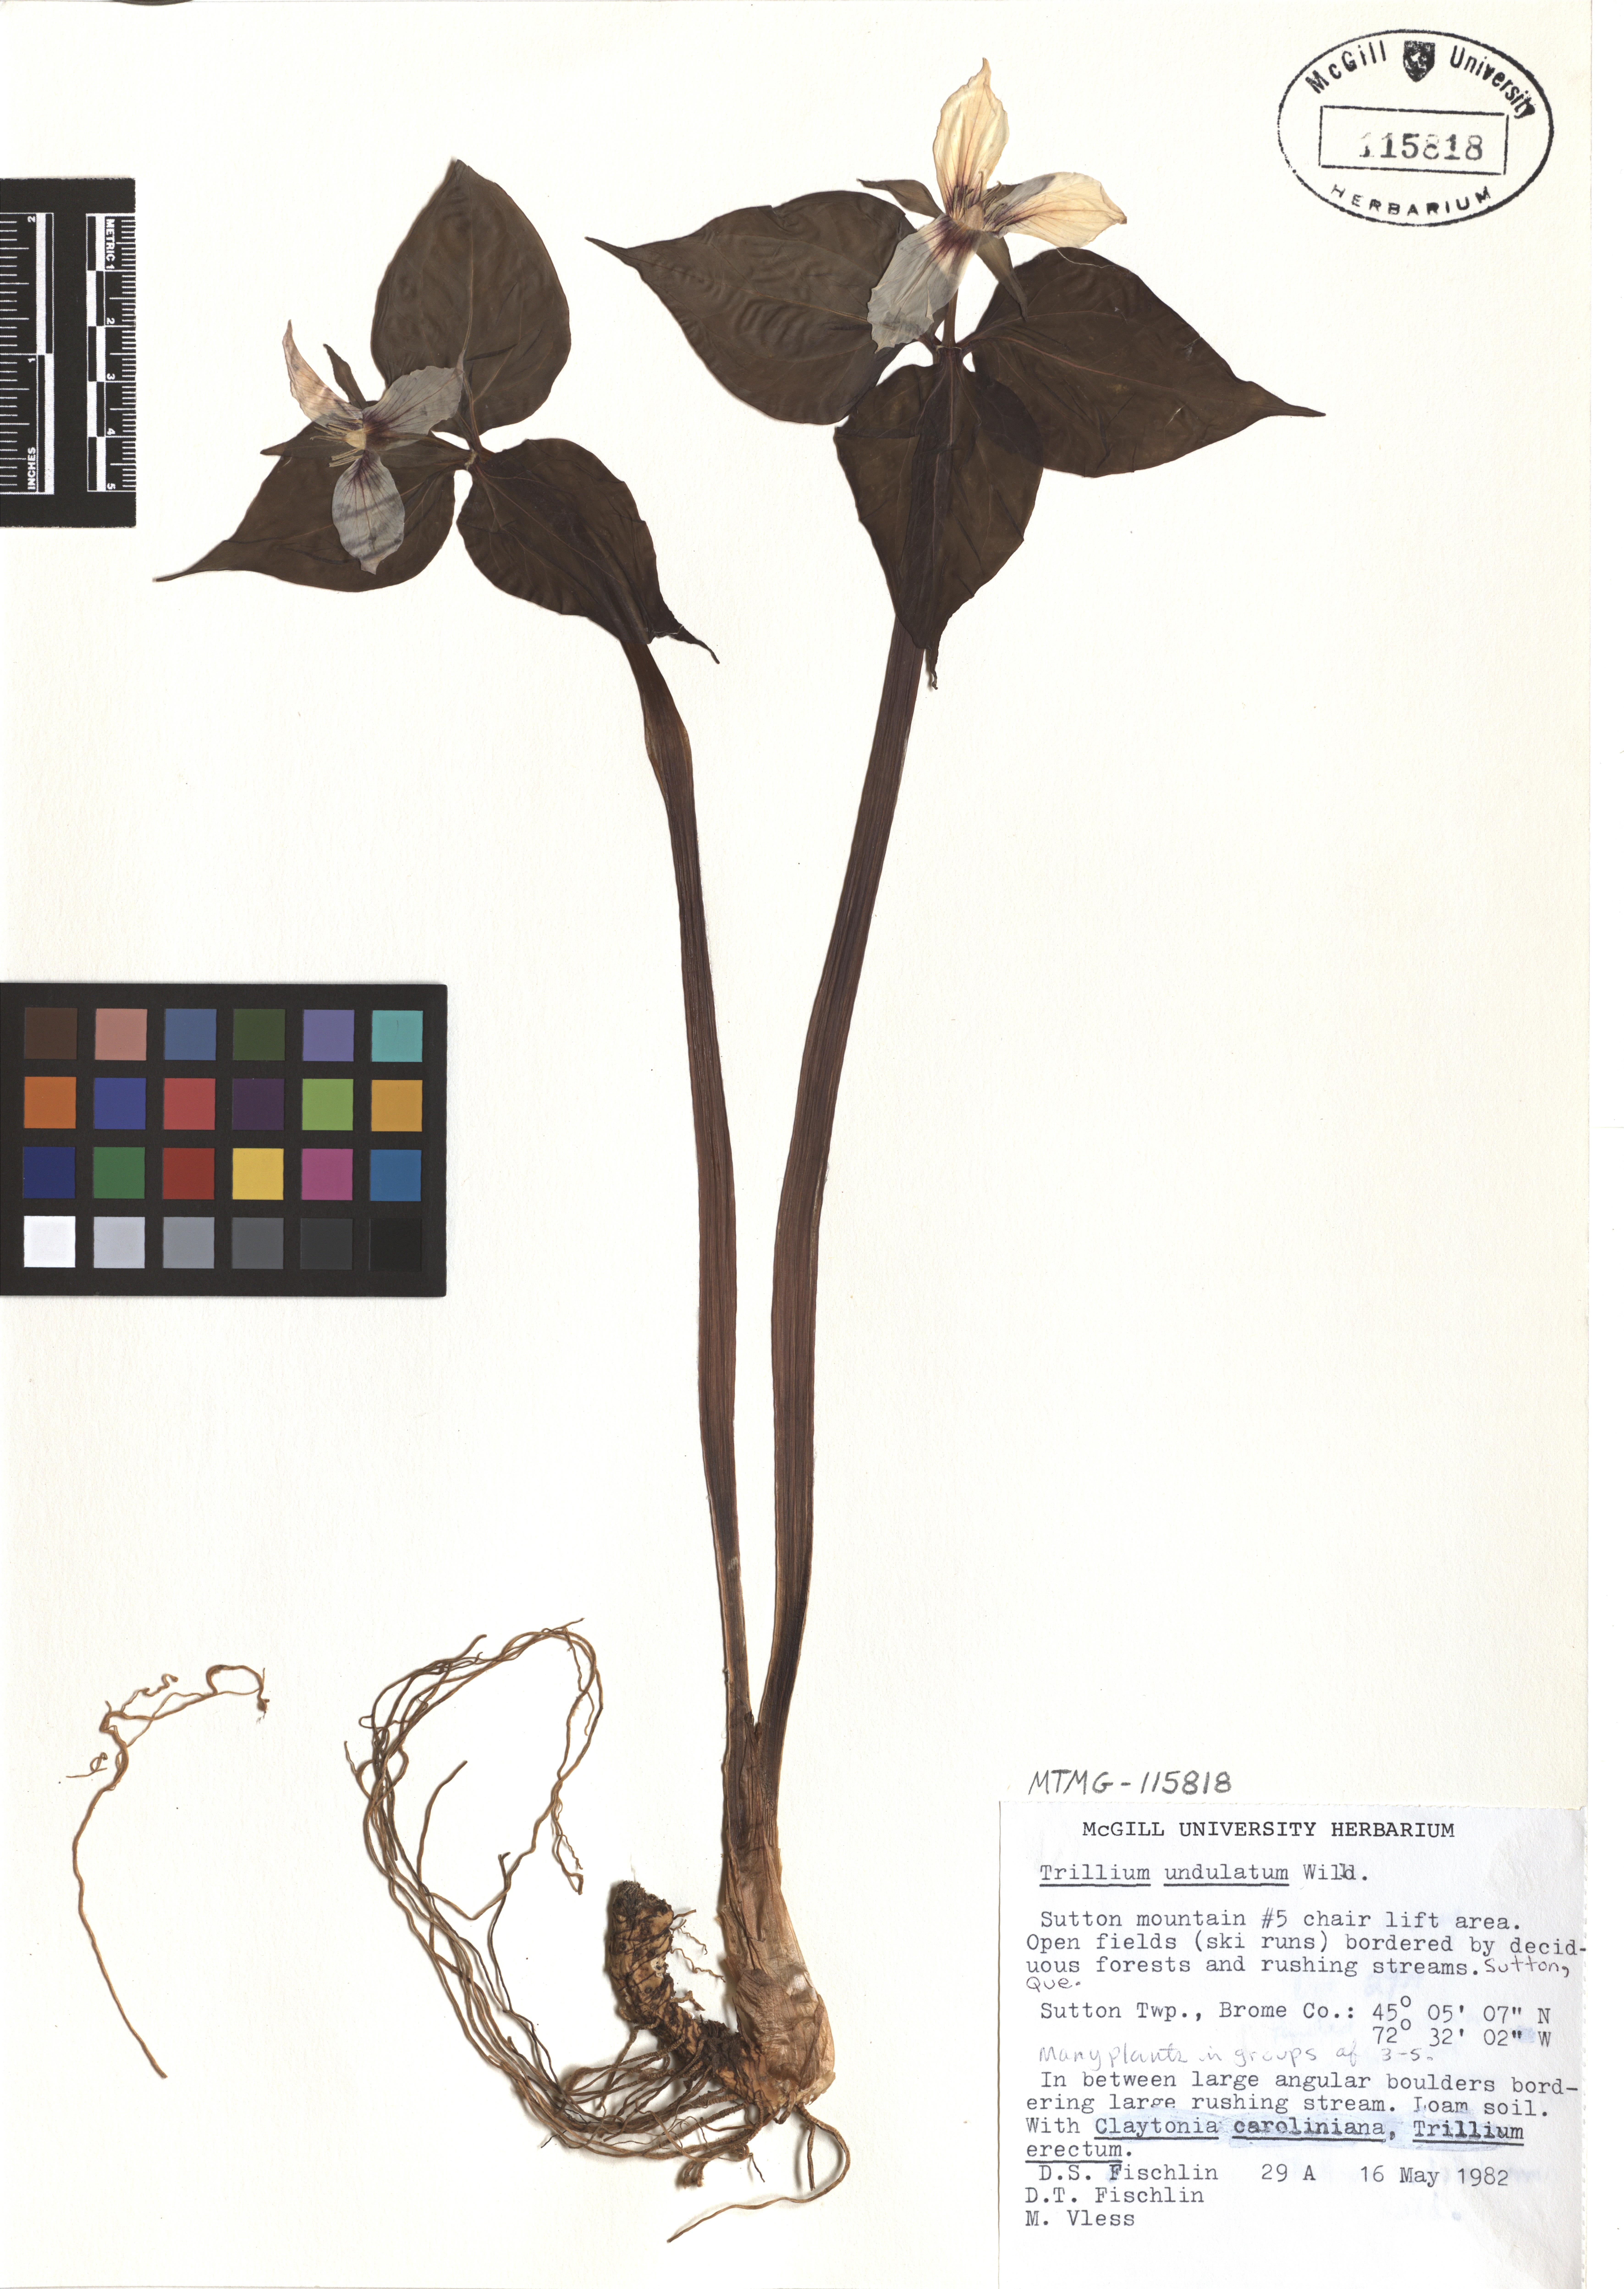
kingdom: Plantae
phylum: Tracheophyta
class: Liliopsida
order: Liliales
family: Melanthiaceae
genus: Trillium
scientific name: Trillium undulatum
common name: Paint trillium
